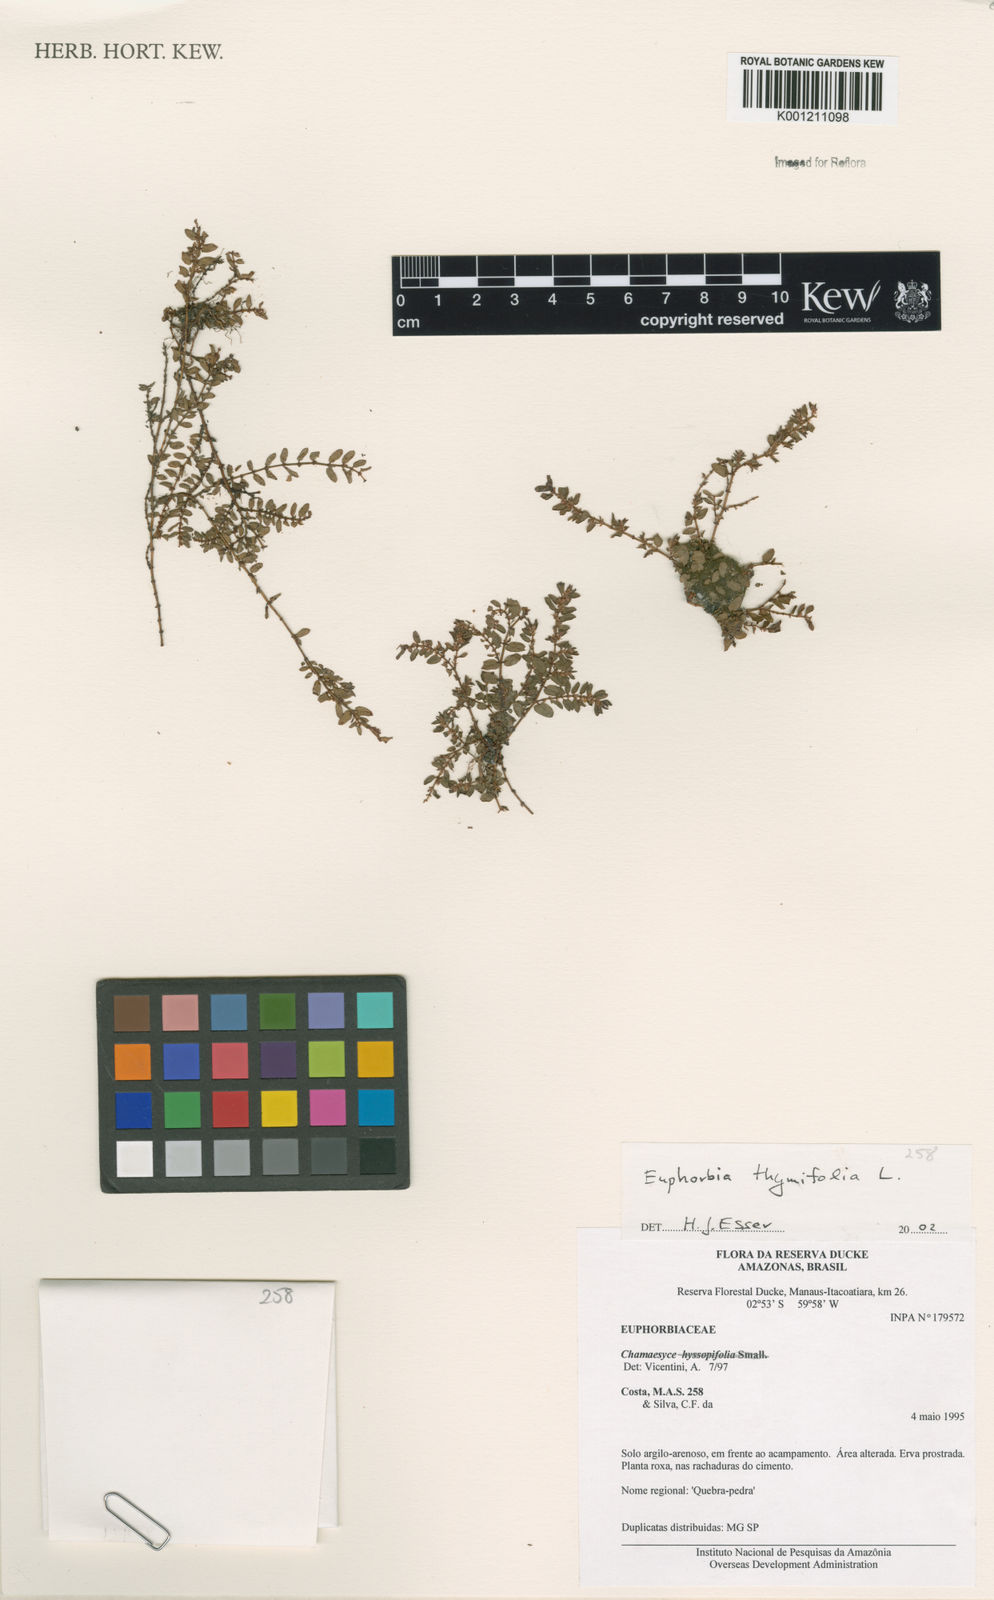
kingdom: Plantae
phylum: Tracheophyta
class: Magnoliopsida
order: Malpighiales
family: Euphorbiaceae
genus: Euphorbia
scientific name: Euphorbia thymifolia
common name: Gulf sandmat
